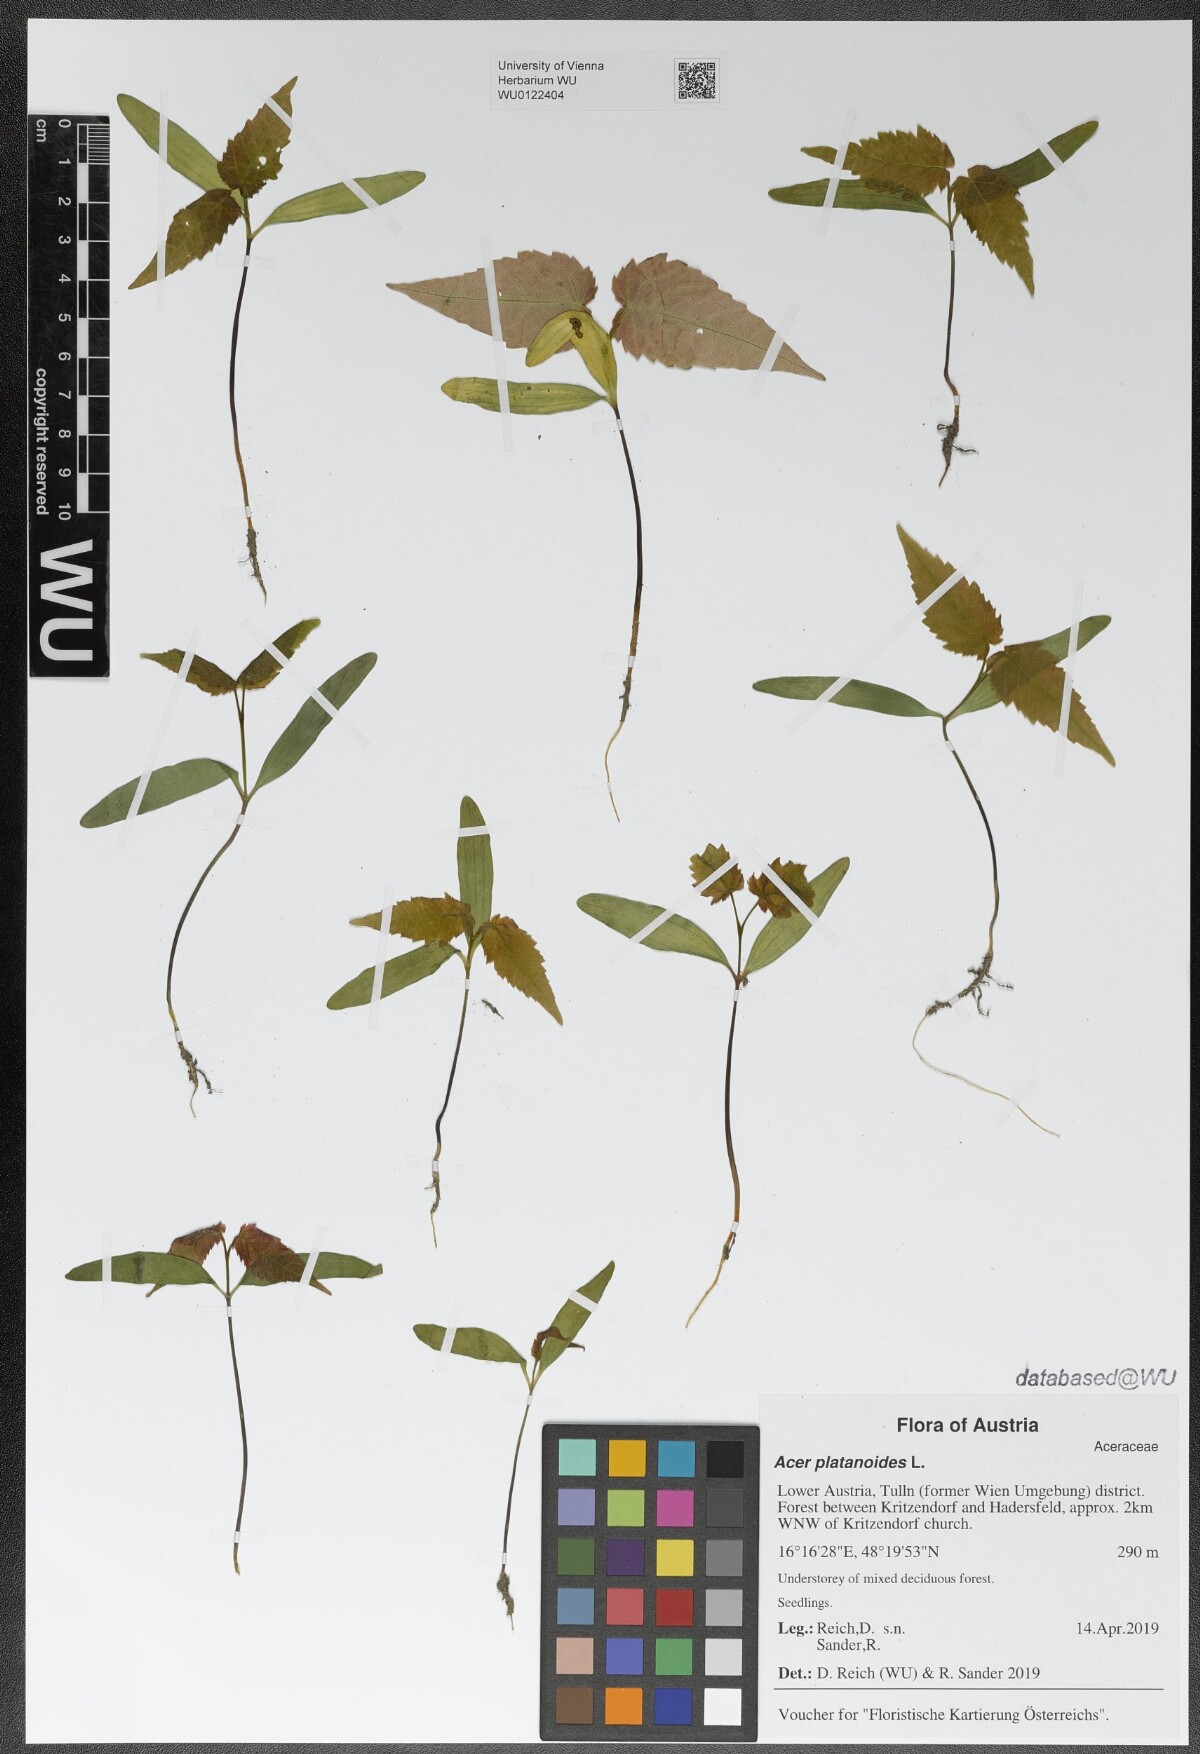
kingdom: Plantae
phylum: Tracheophyta
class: Magnoliopsida
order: Sapindales
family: Sapindaceae
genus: Acer
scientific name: Acer platanoides
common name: Norway maple
